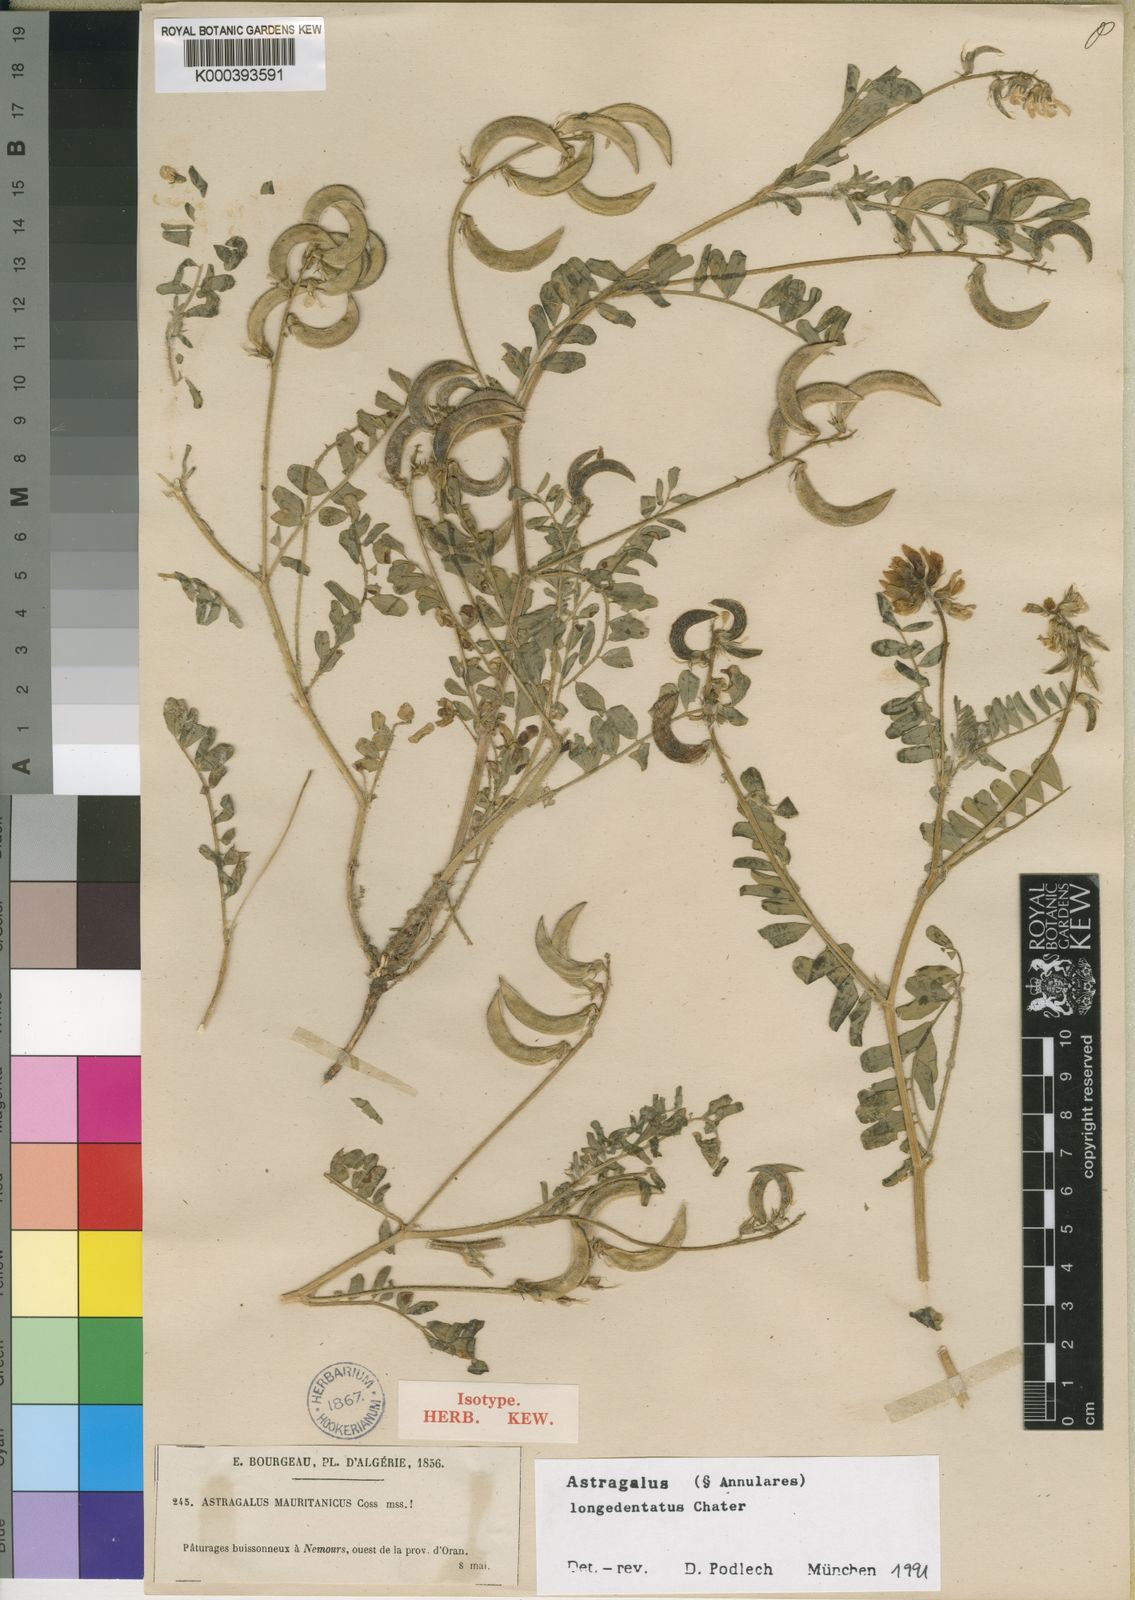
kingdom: Plantae
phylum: Tracheophyta
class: Magnoliopsida
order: Fabales
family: Fabaceae
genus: Astragalus
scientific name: Astragalus longidentatus
